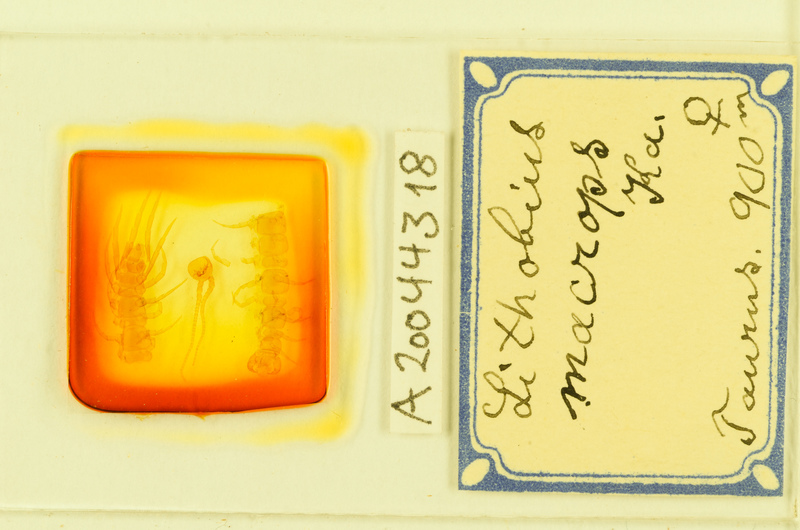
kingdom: Animalia
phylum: Arthropoda
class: Chilopoda
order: Lithobiomorpha
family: Lithobiidae
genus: Lithobius
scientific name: Lithobius carinatus
